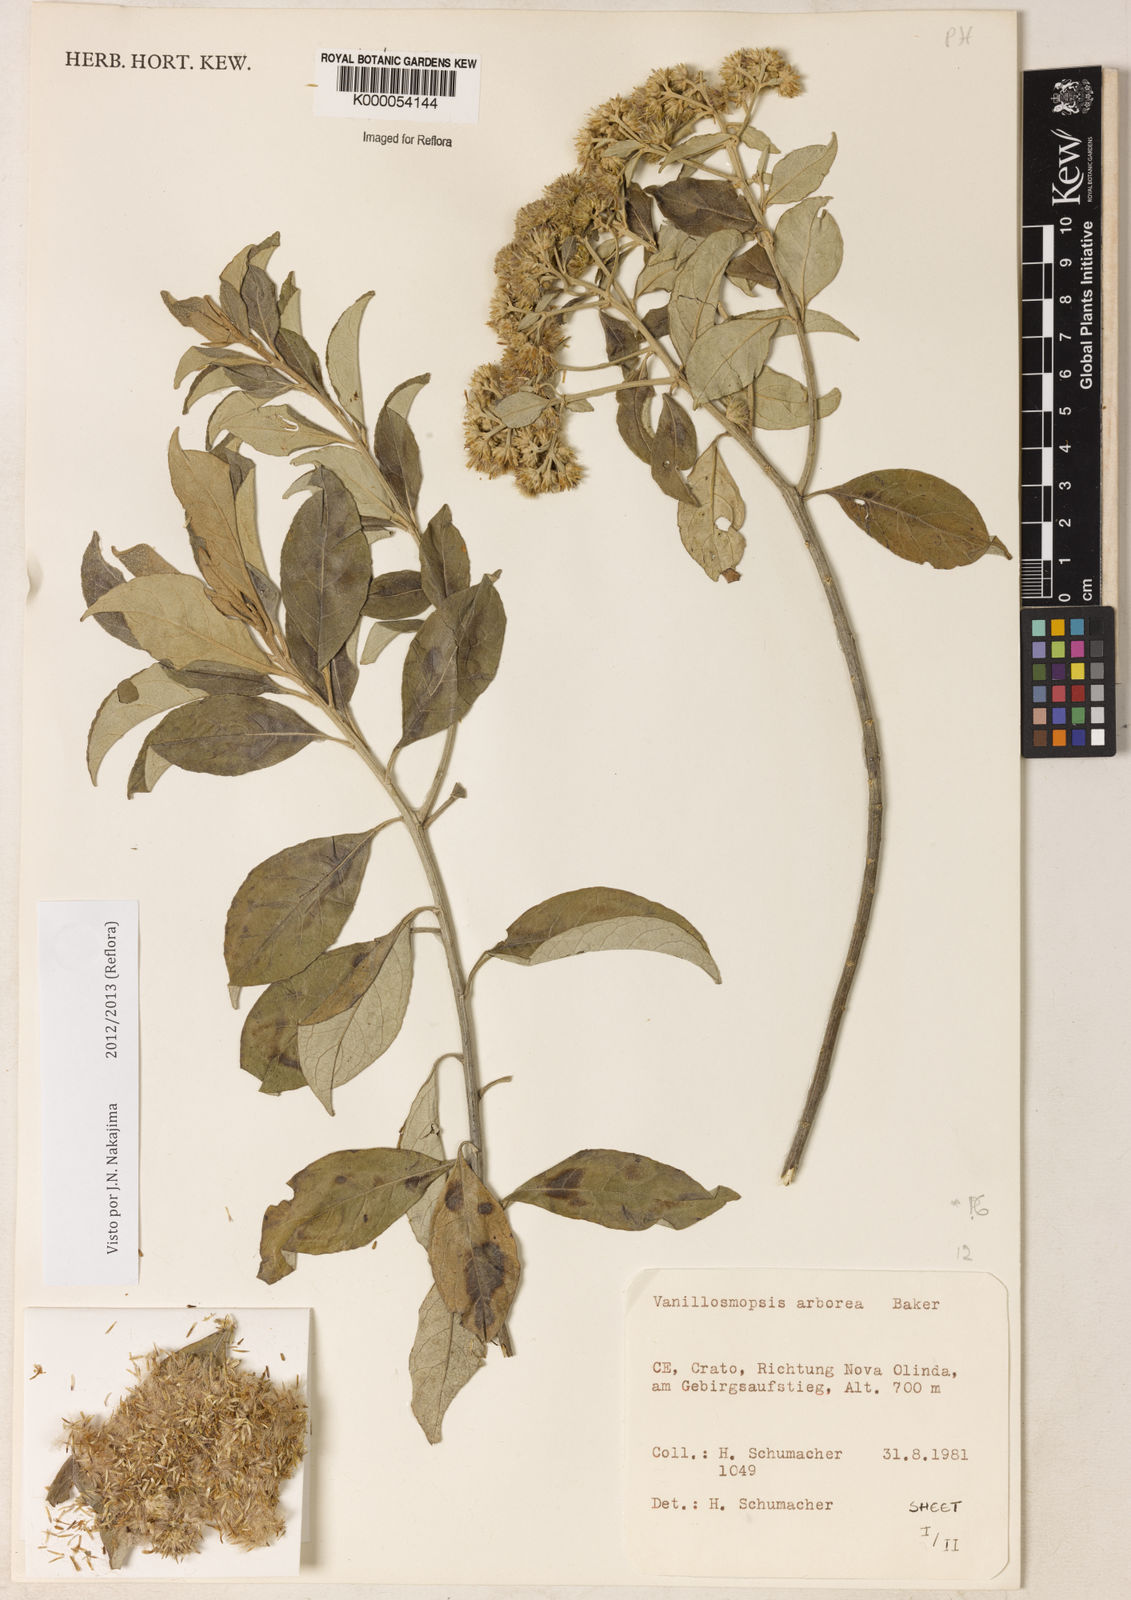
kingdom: Plantae
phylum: Tracheophyta
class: Magnoliopsida
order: Asterales
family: Asteraceae
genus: Eremanthus
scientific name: Eremanthus arboreus
